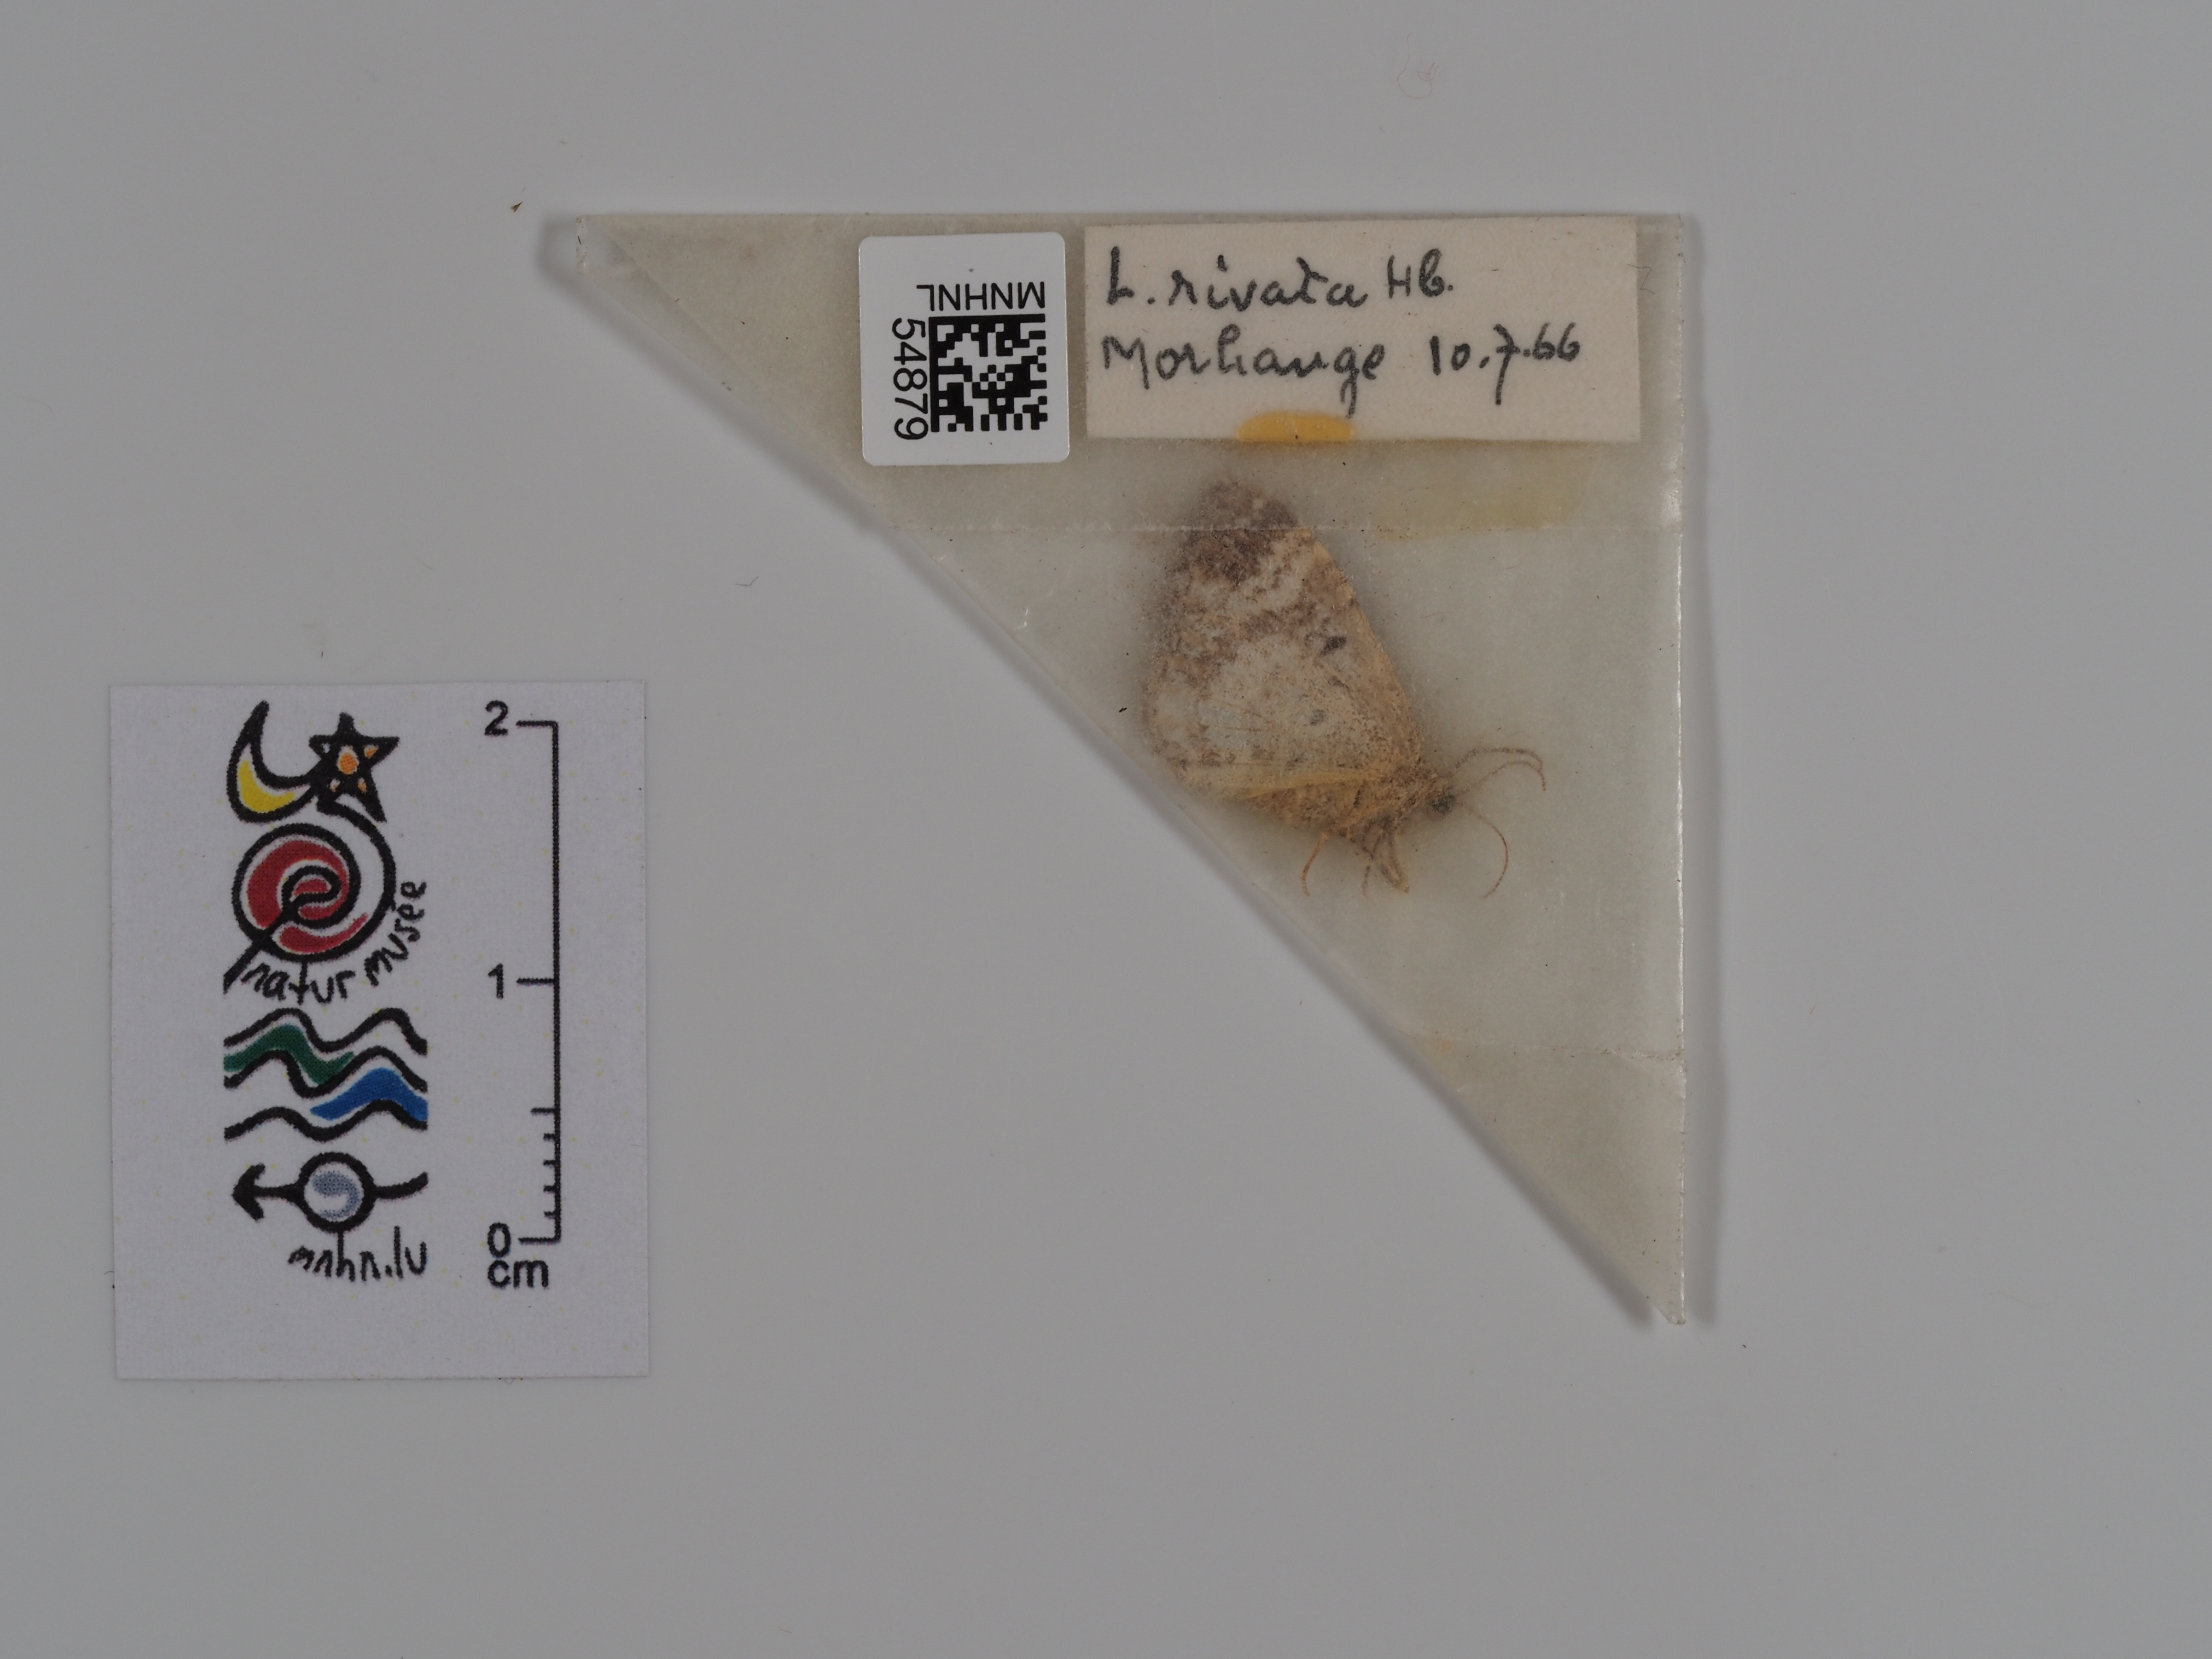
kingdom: Animalia
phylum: Arthropoda
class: Insecta
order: Lepidoptera
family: Geometridae
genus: Epirrhoe
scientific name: Epirrhoe rivata
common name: Wood carpet
